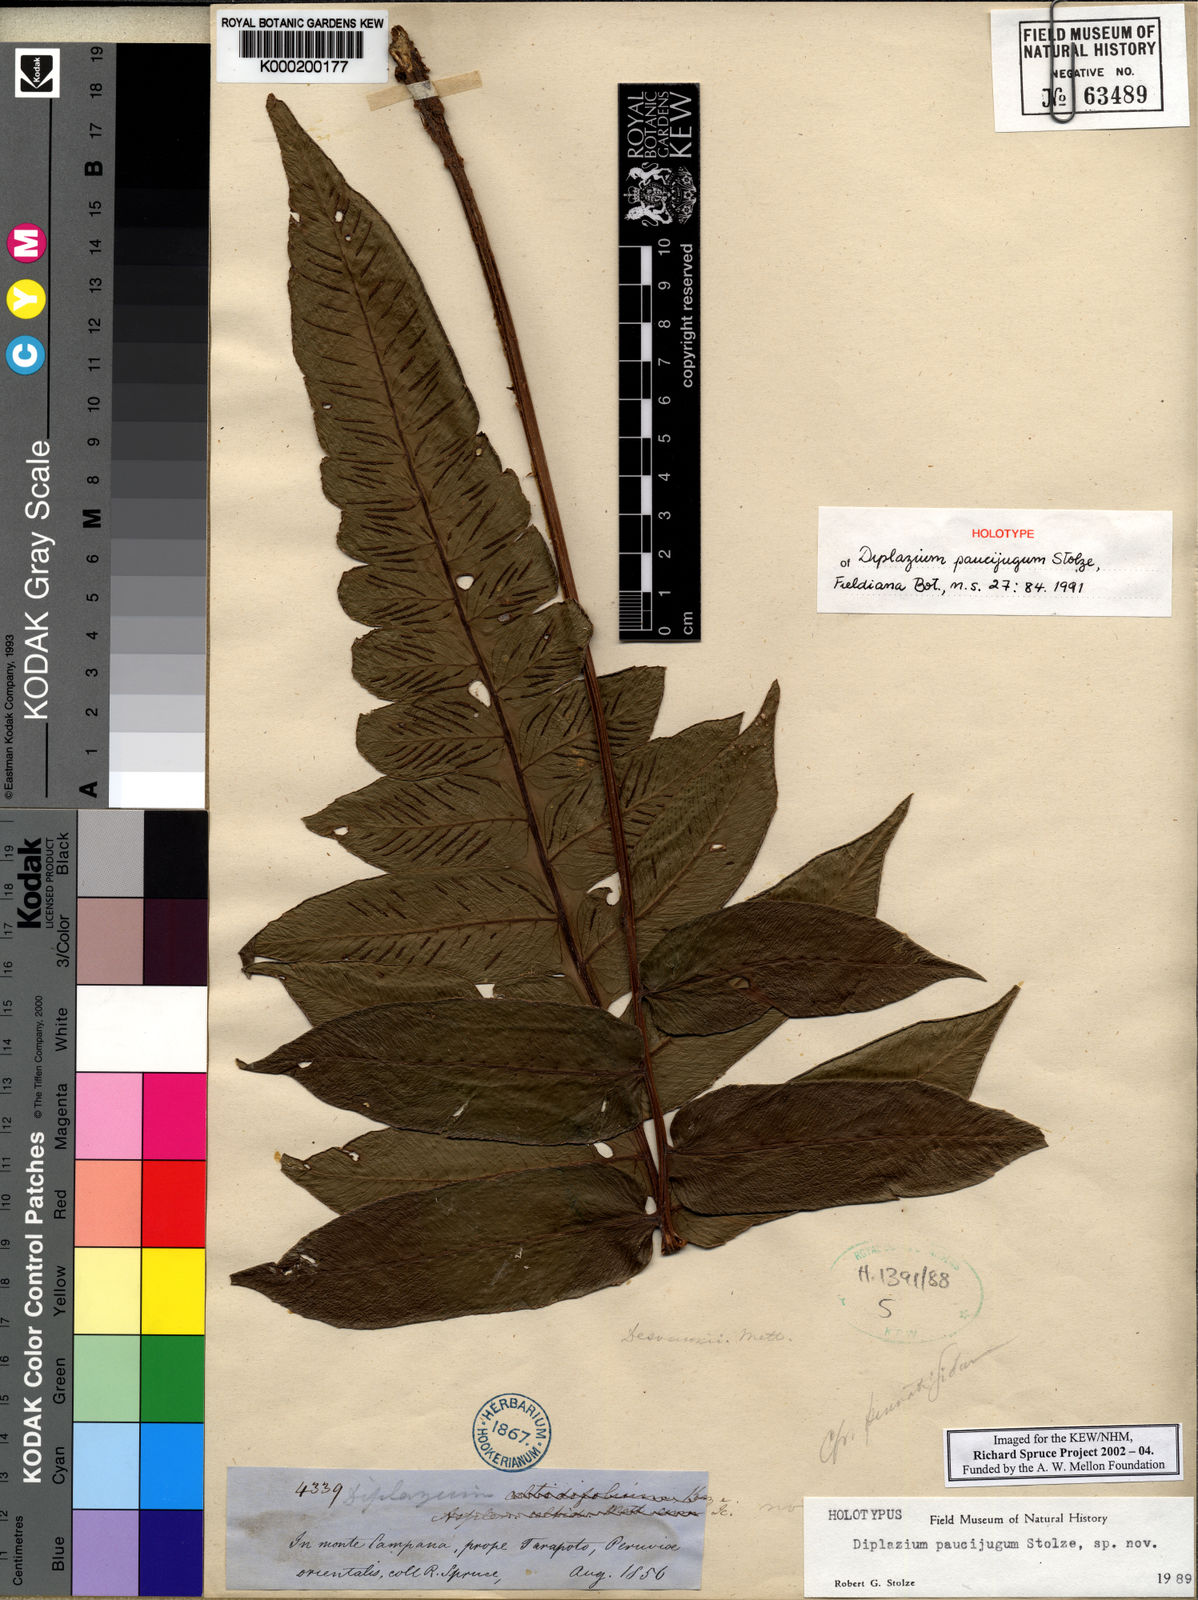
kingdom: Plantae
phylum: Tracheophyta
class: Polypodiopsida
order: Polypodiales
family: Athyriaceae
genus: Diplazium
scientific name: Diplazium paucijugum
